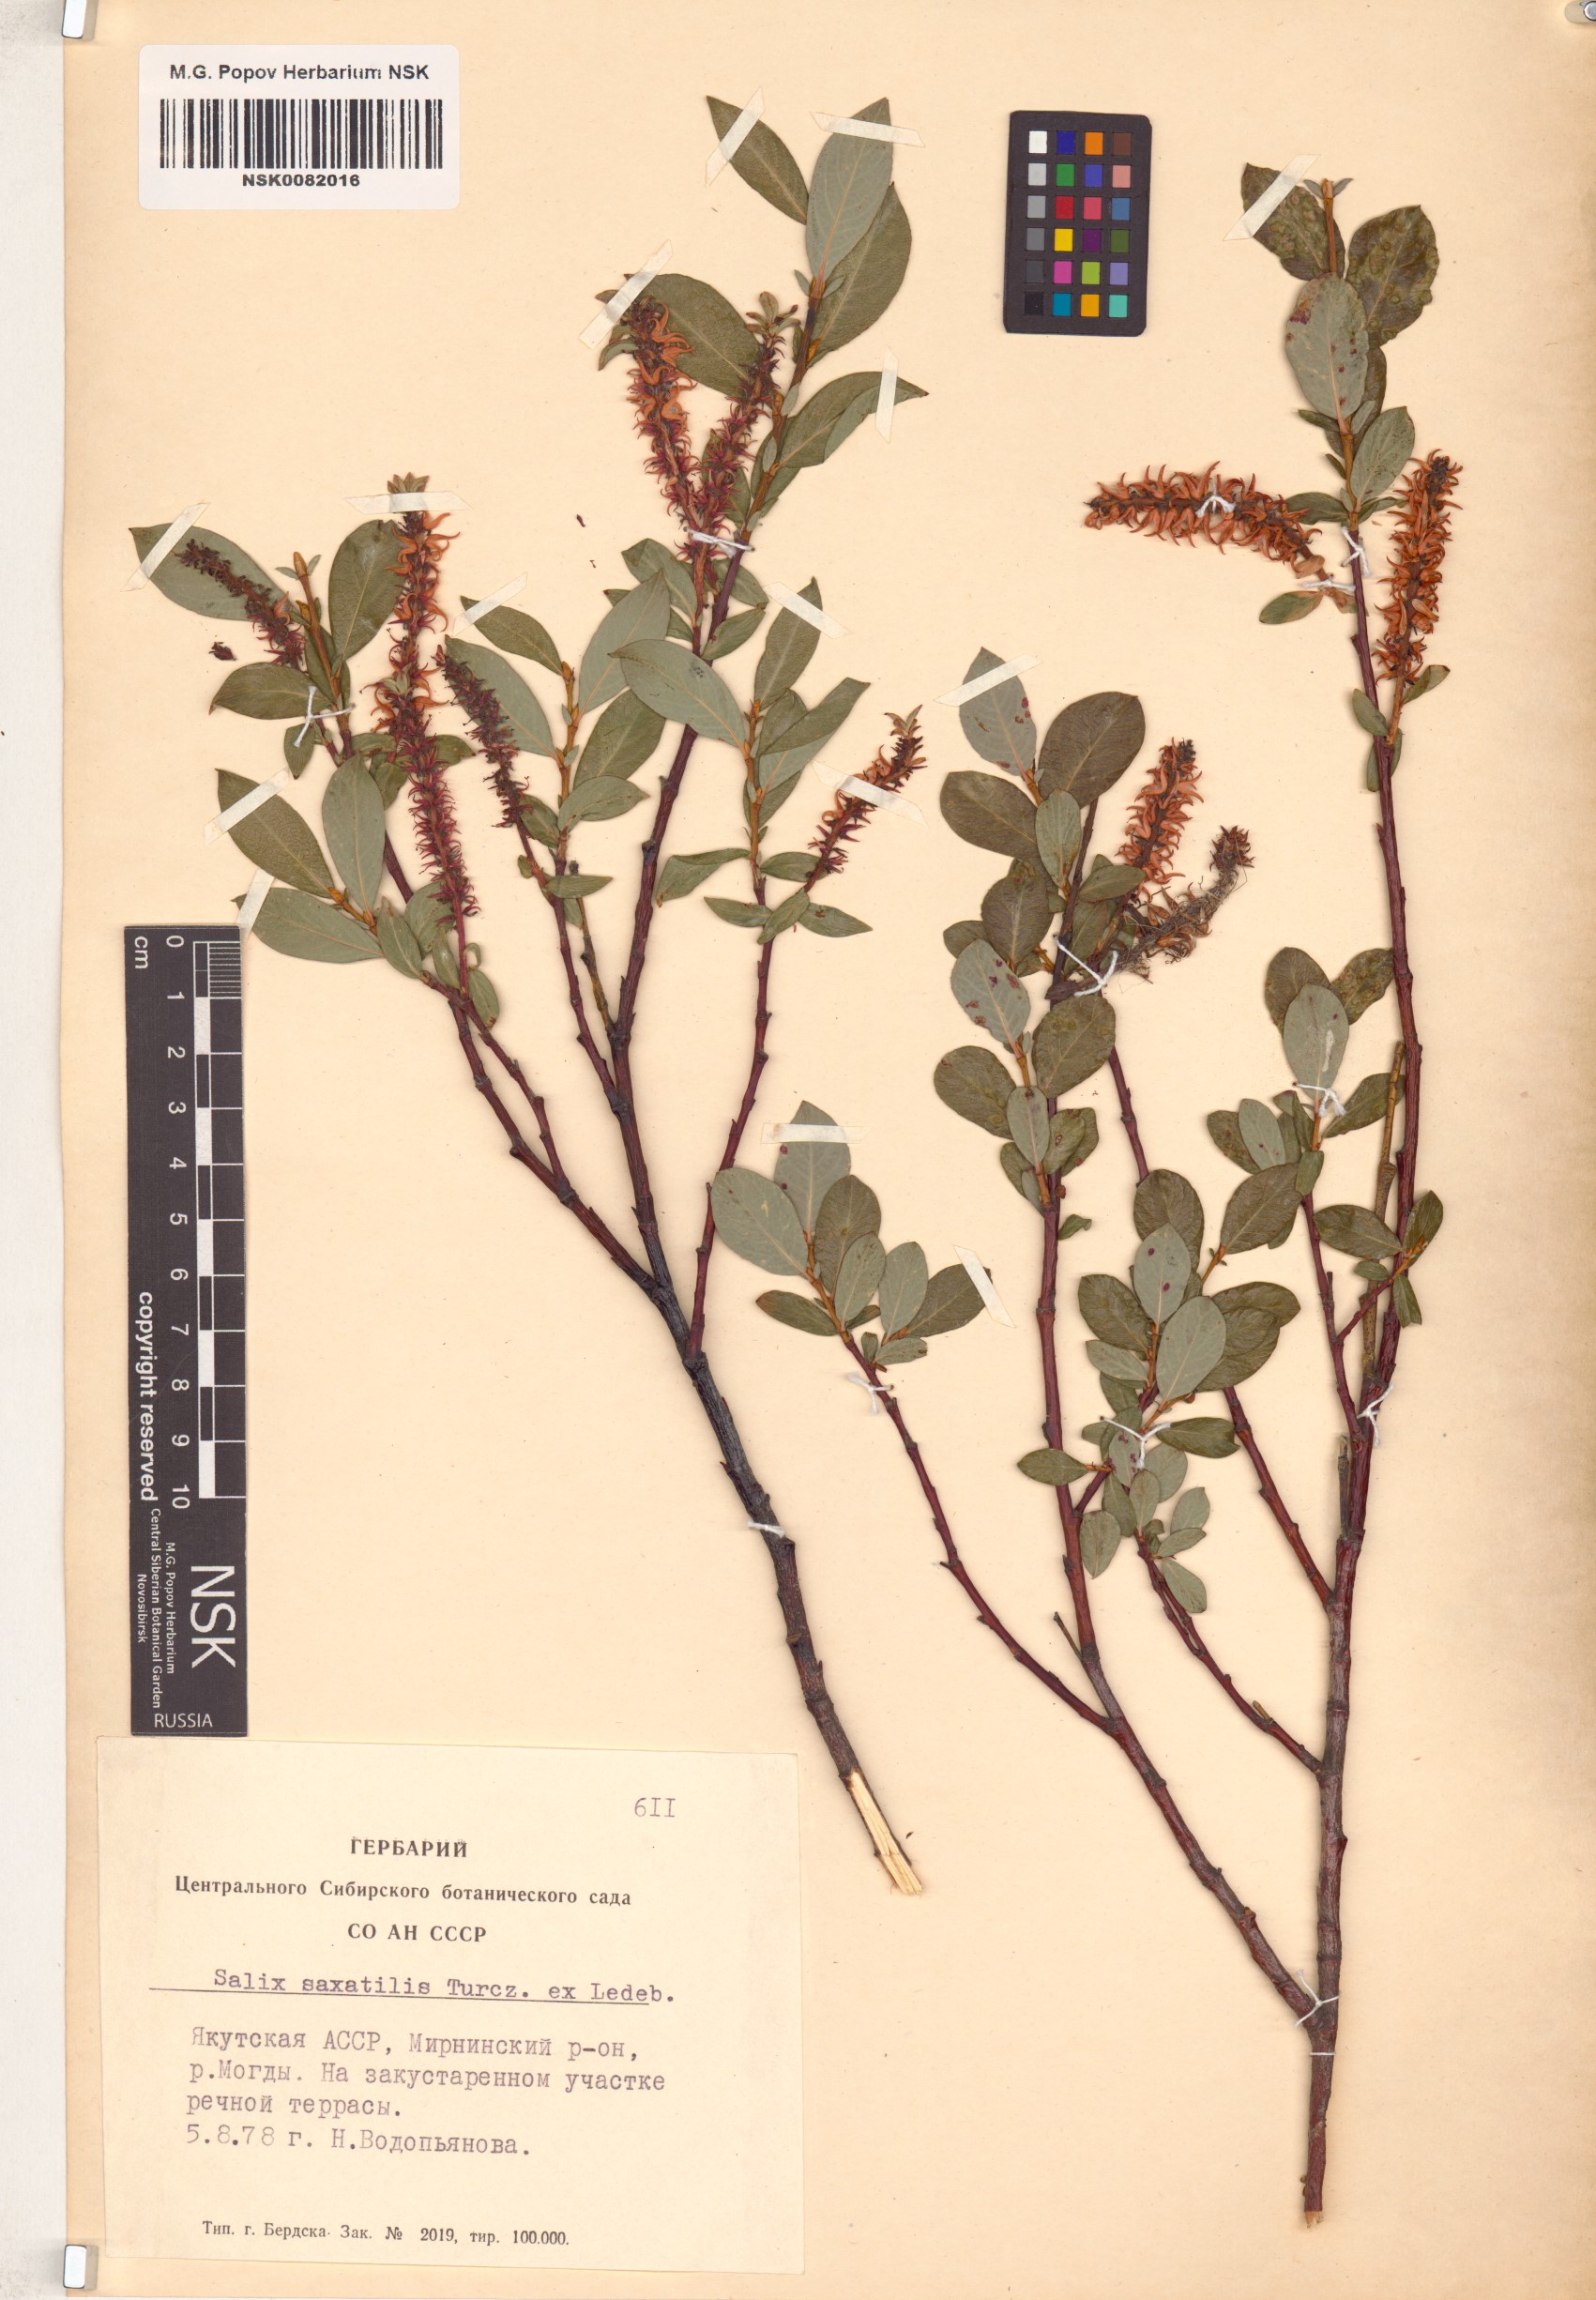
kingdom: Plantae
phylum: Tracheophyta
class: Magnoliopsida
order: Malpighiales
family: Salicaceae
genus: Salix
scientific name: Salix saxatilis
